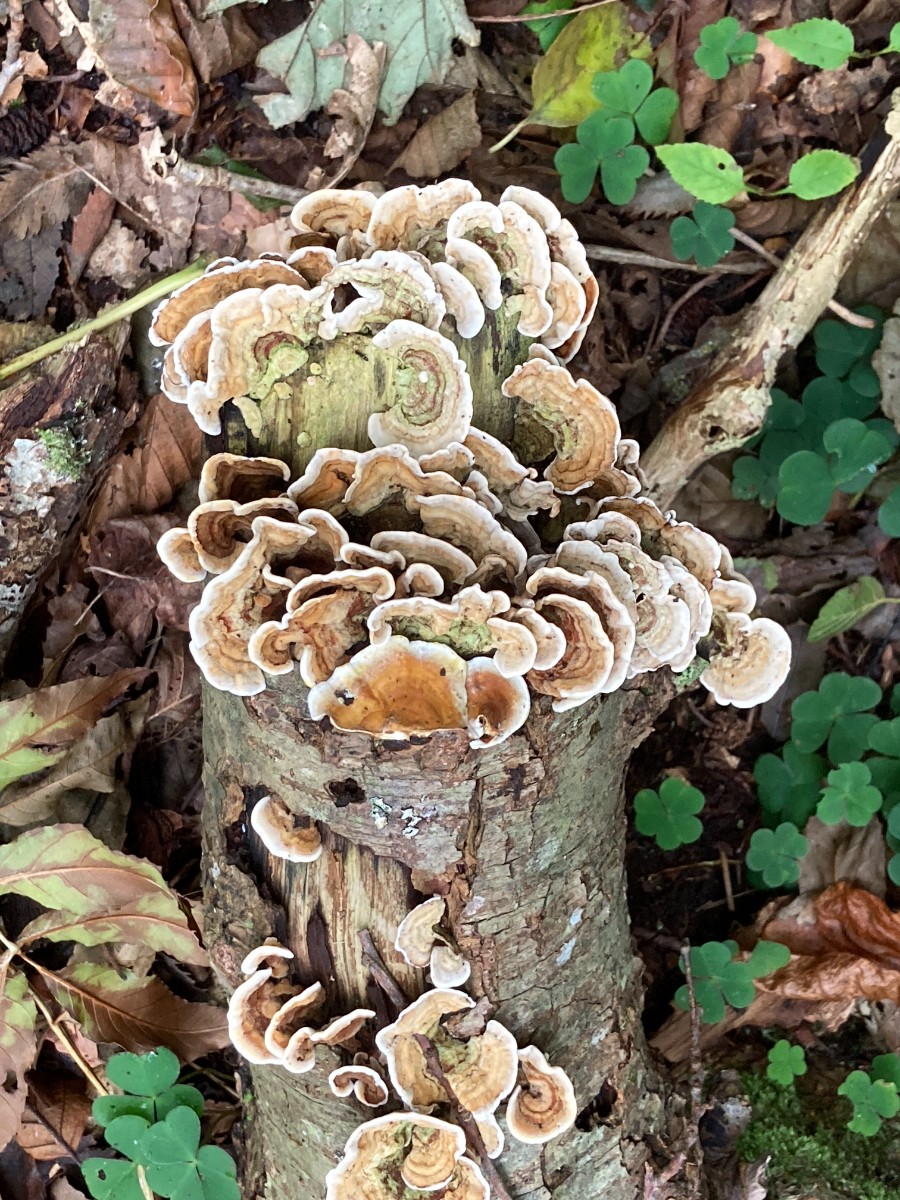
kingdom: Fungi
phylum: Basidiomycota
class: Agaricomycetes
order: Russulales
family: Stereaceae
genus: Stereum
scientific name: Stereum subtomentosum
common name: smuk lædersvamp
